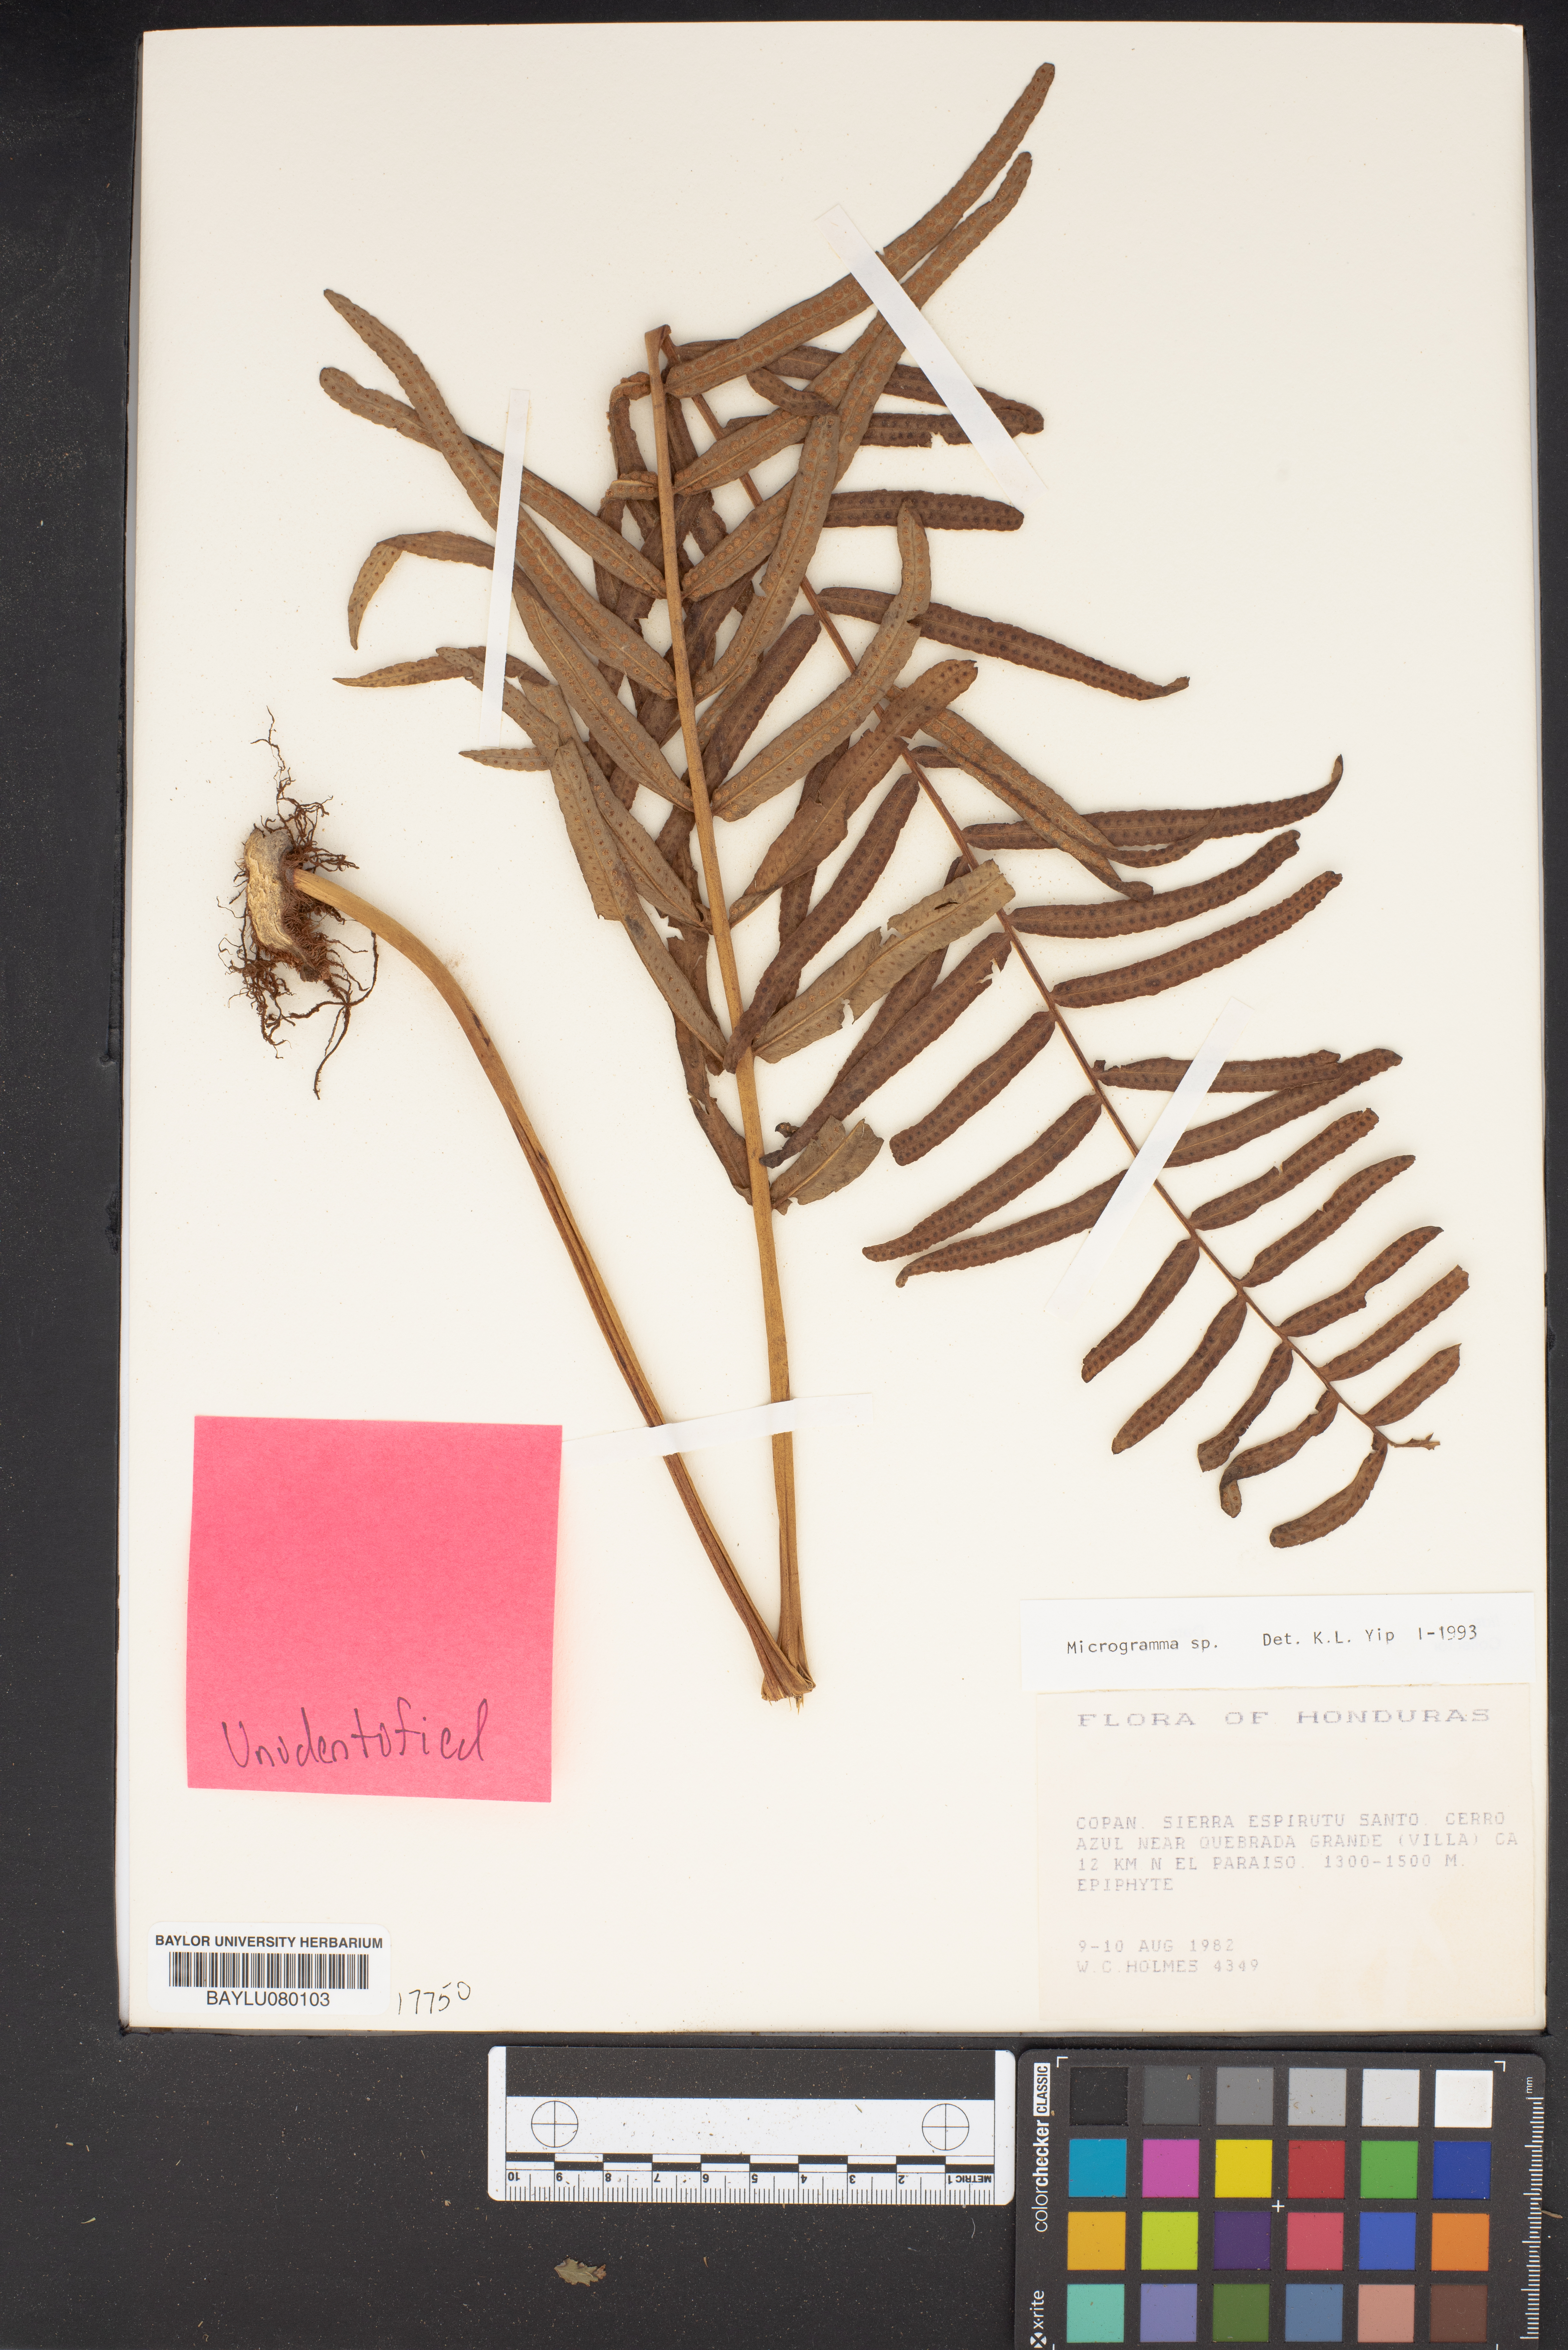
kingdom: Plantae
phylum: Tracheophyta
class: Polypodiopsida
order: Polypodiales
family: Polypodiaceae
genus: Microgramma
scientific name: Microgramma
